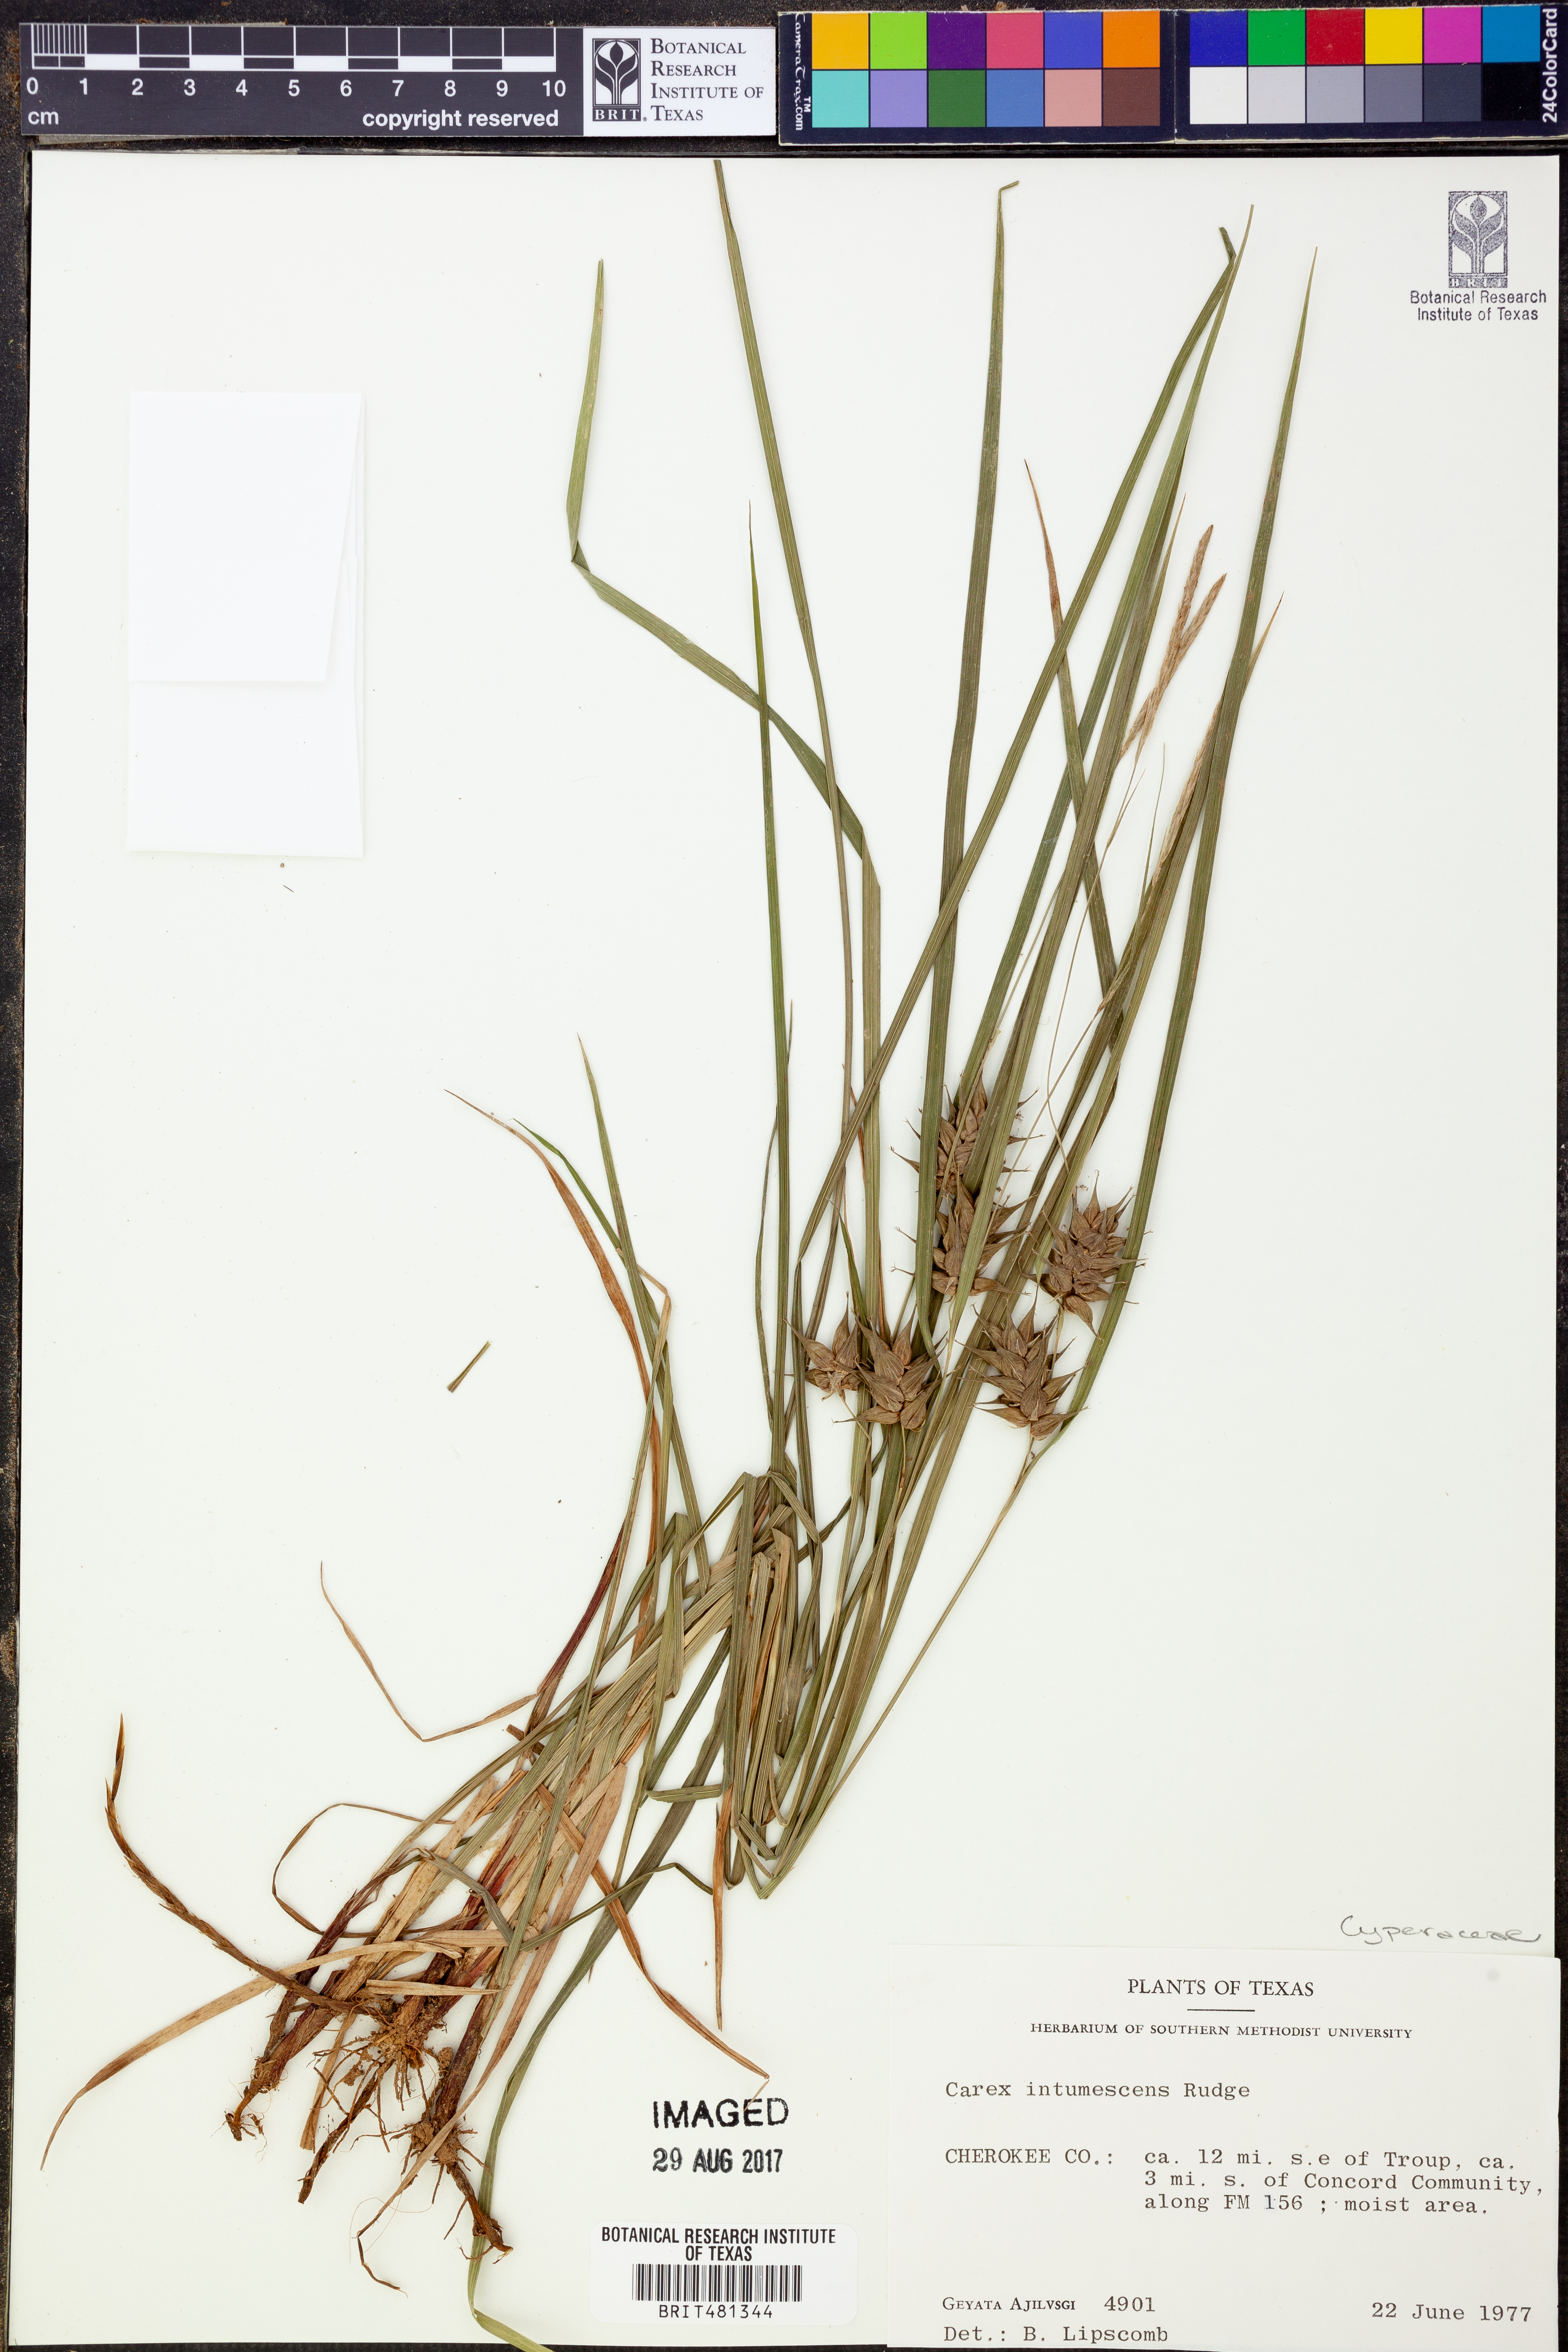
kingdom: Plantae
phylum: Tracheophyta
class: Liliopsida
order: Poales
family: Cyperaceae
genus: Carex
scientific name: Carex intumescens
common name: Greater bladder sedge
